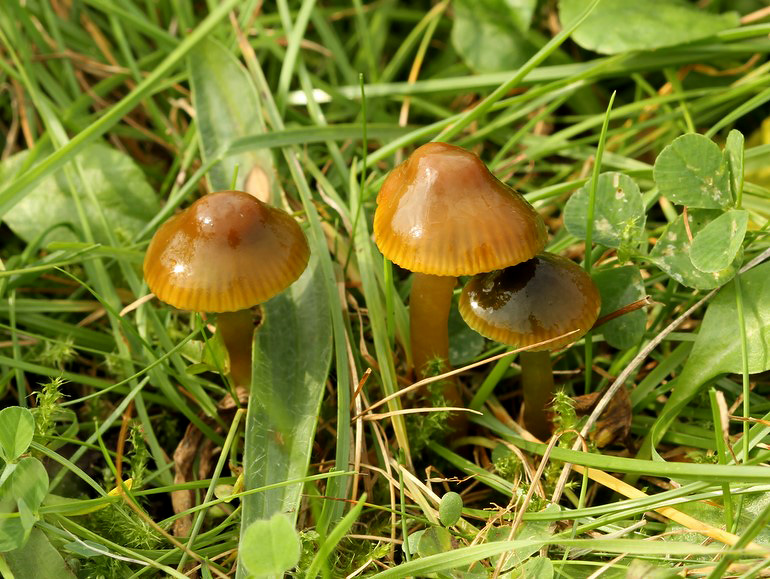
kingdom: Fungi
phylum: Basidiomycota
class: Agaricomycetes
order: Agaricales
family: Hygrophoraceae
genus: Gliophorus
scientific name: Gliophorus psittacinus
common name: papegøje-vokshat
